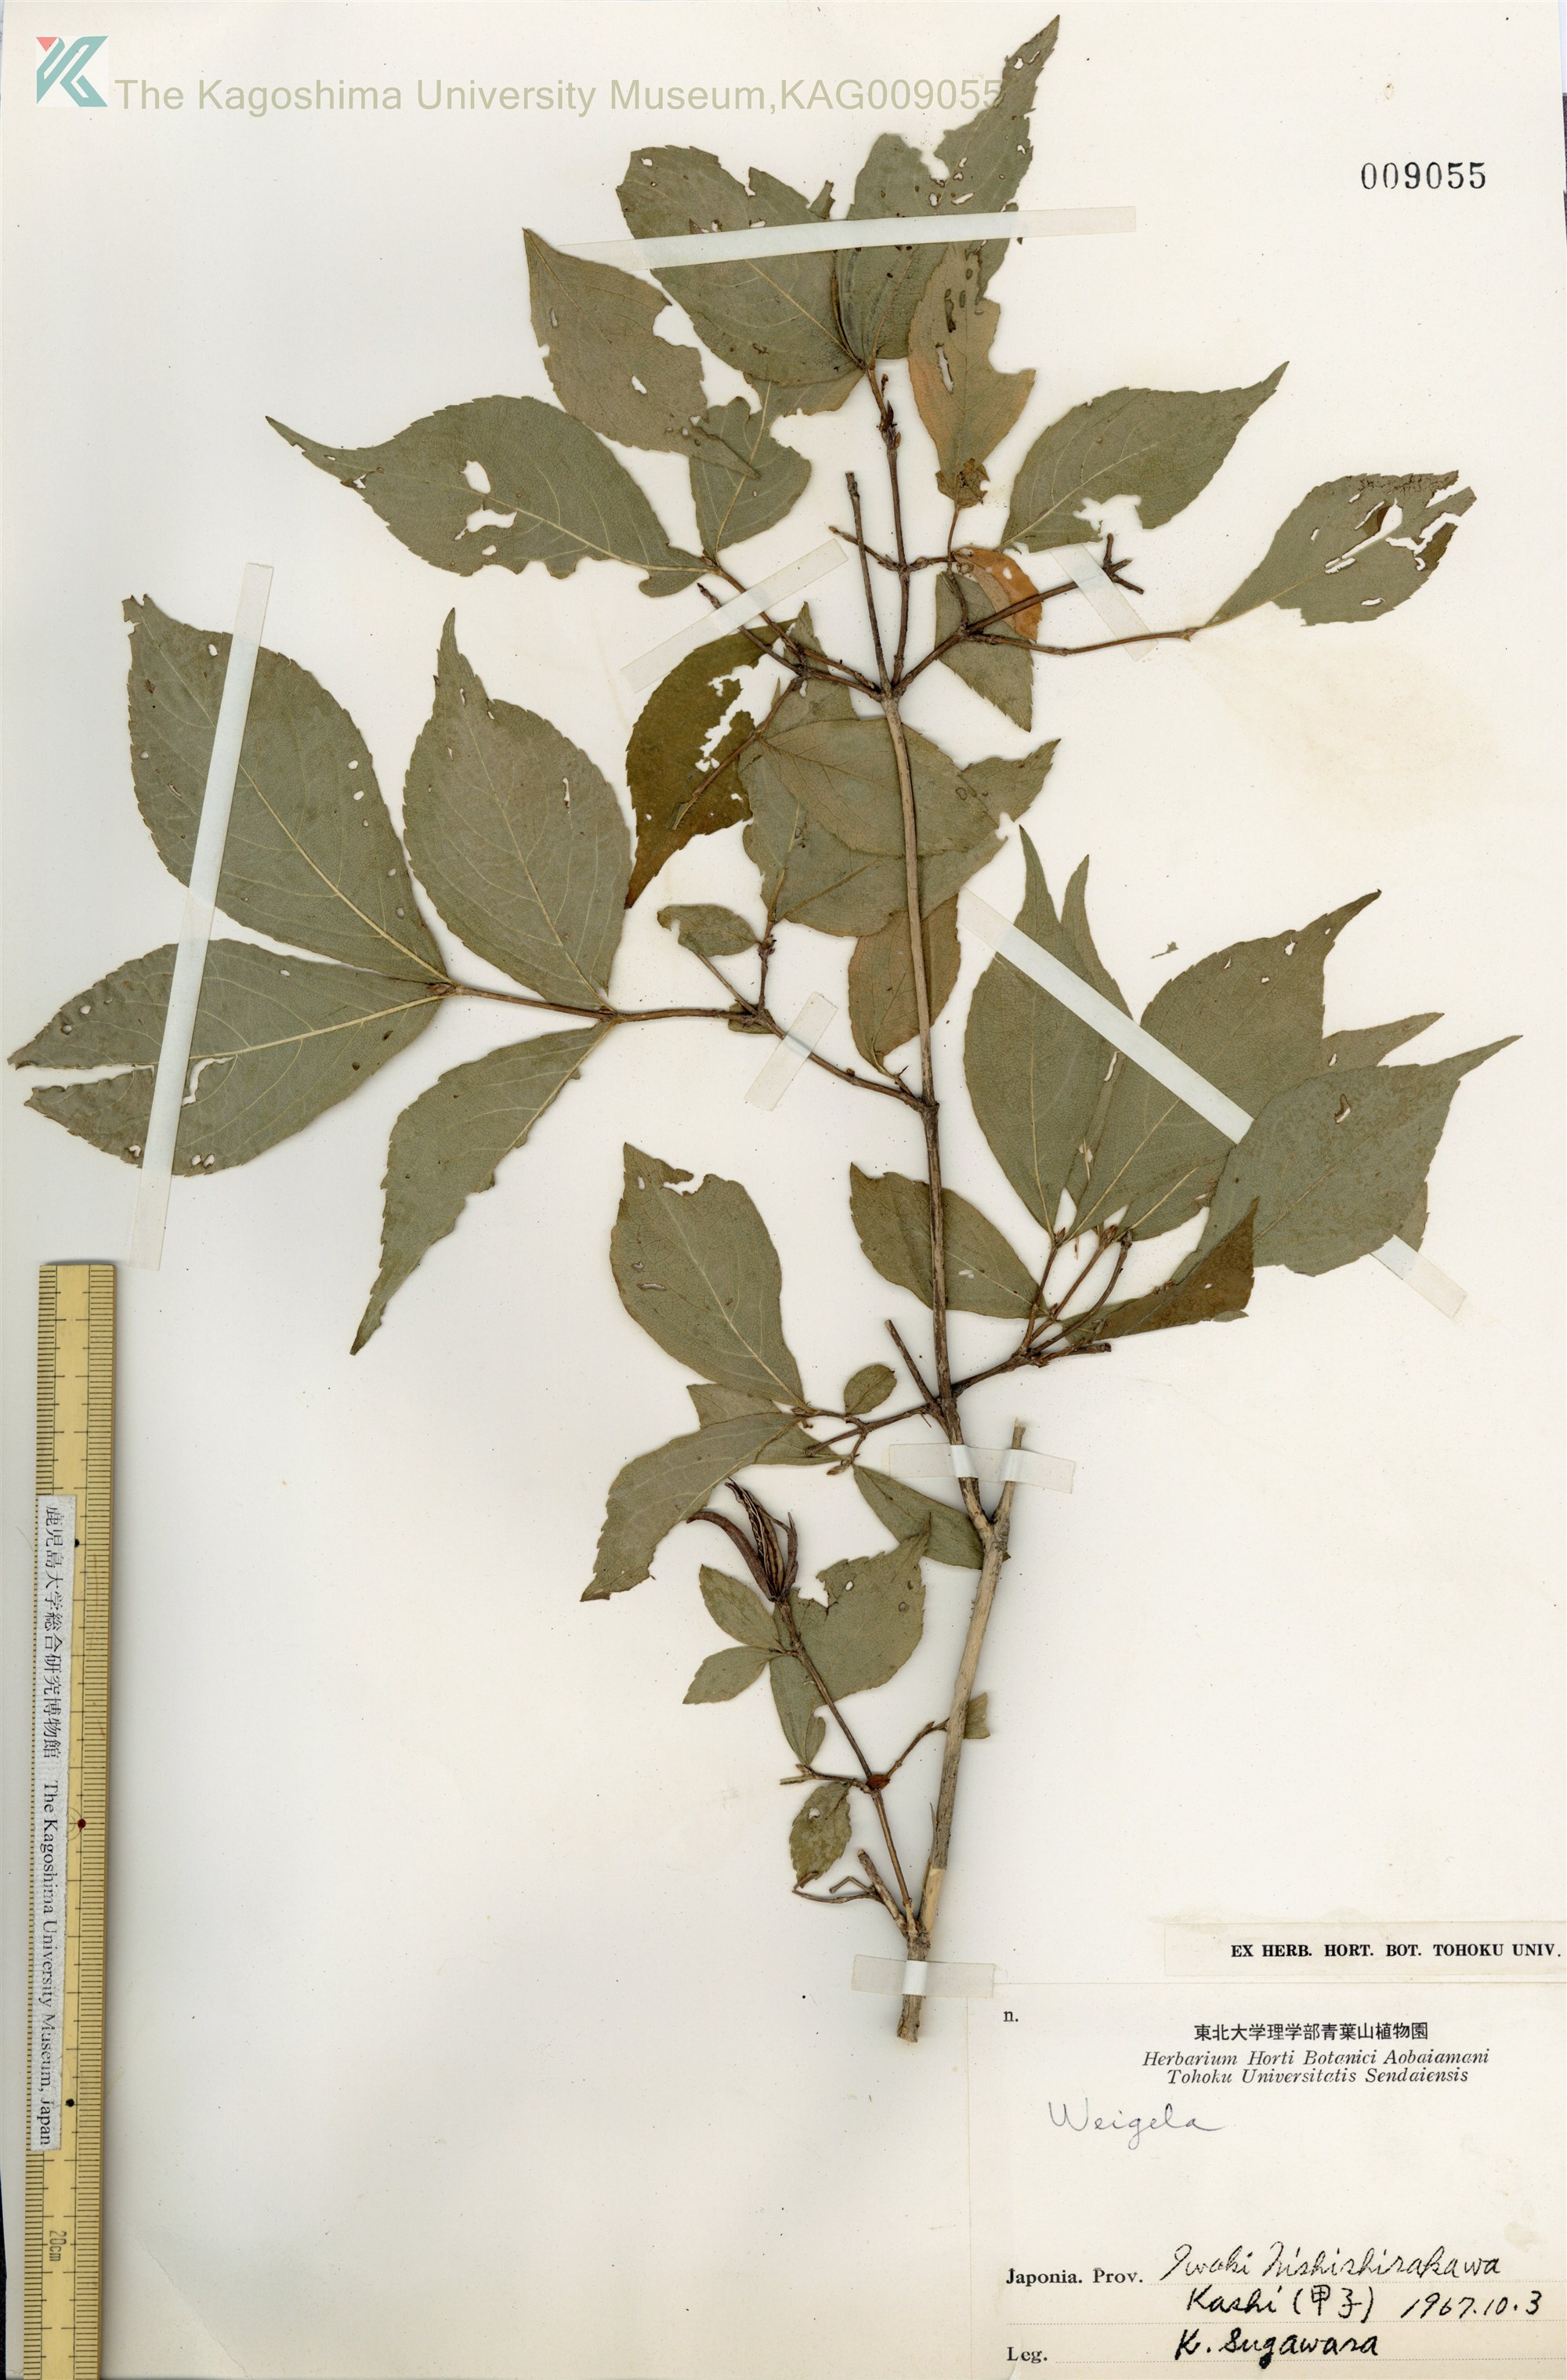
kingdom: Plantae
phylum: Tracheophyta
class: Magnoliopsida
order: Dipsacales
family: Caprifoliaceae
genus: Weigela
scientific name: Weigela decora
